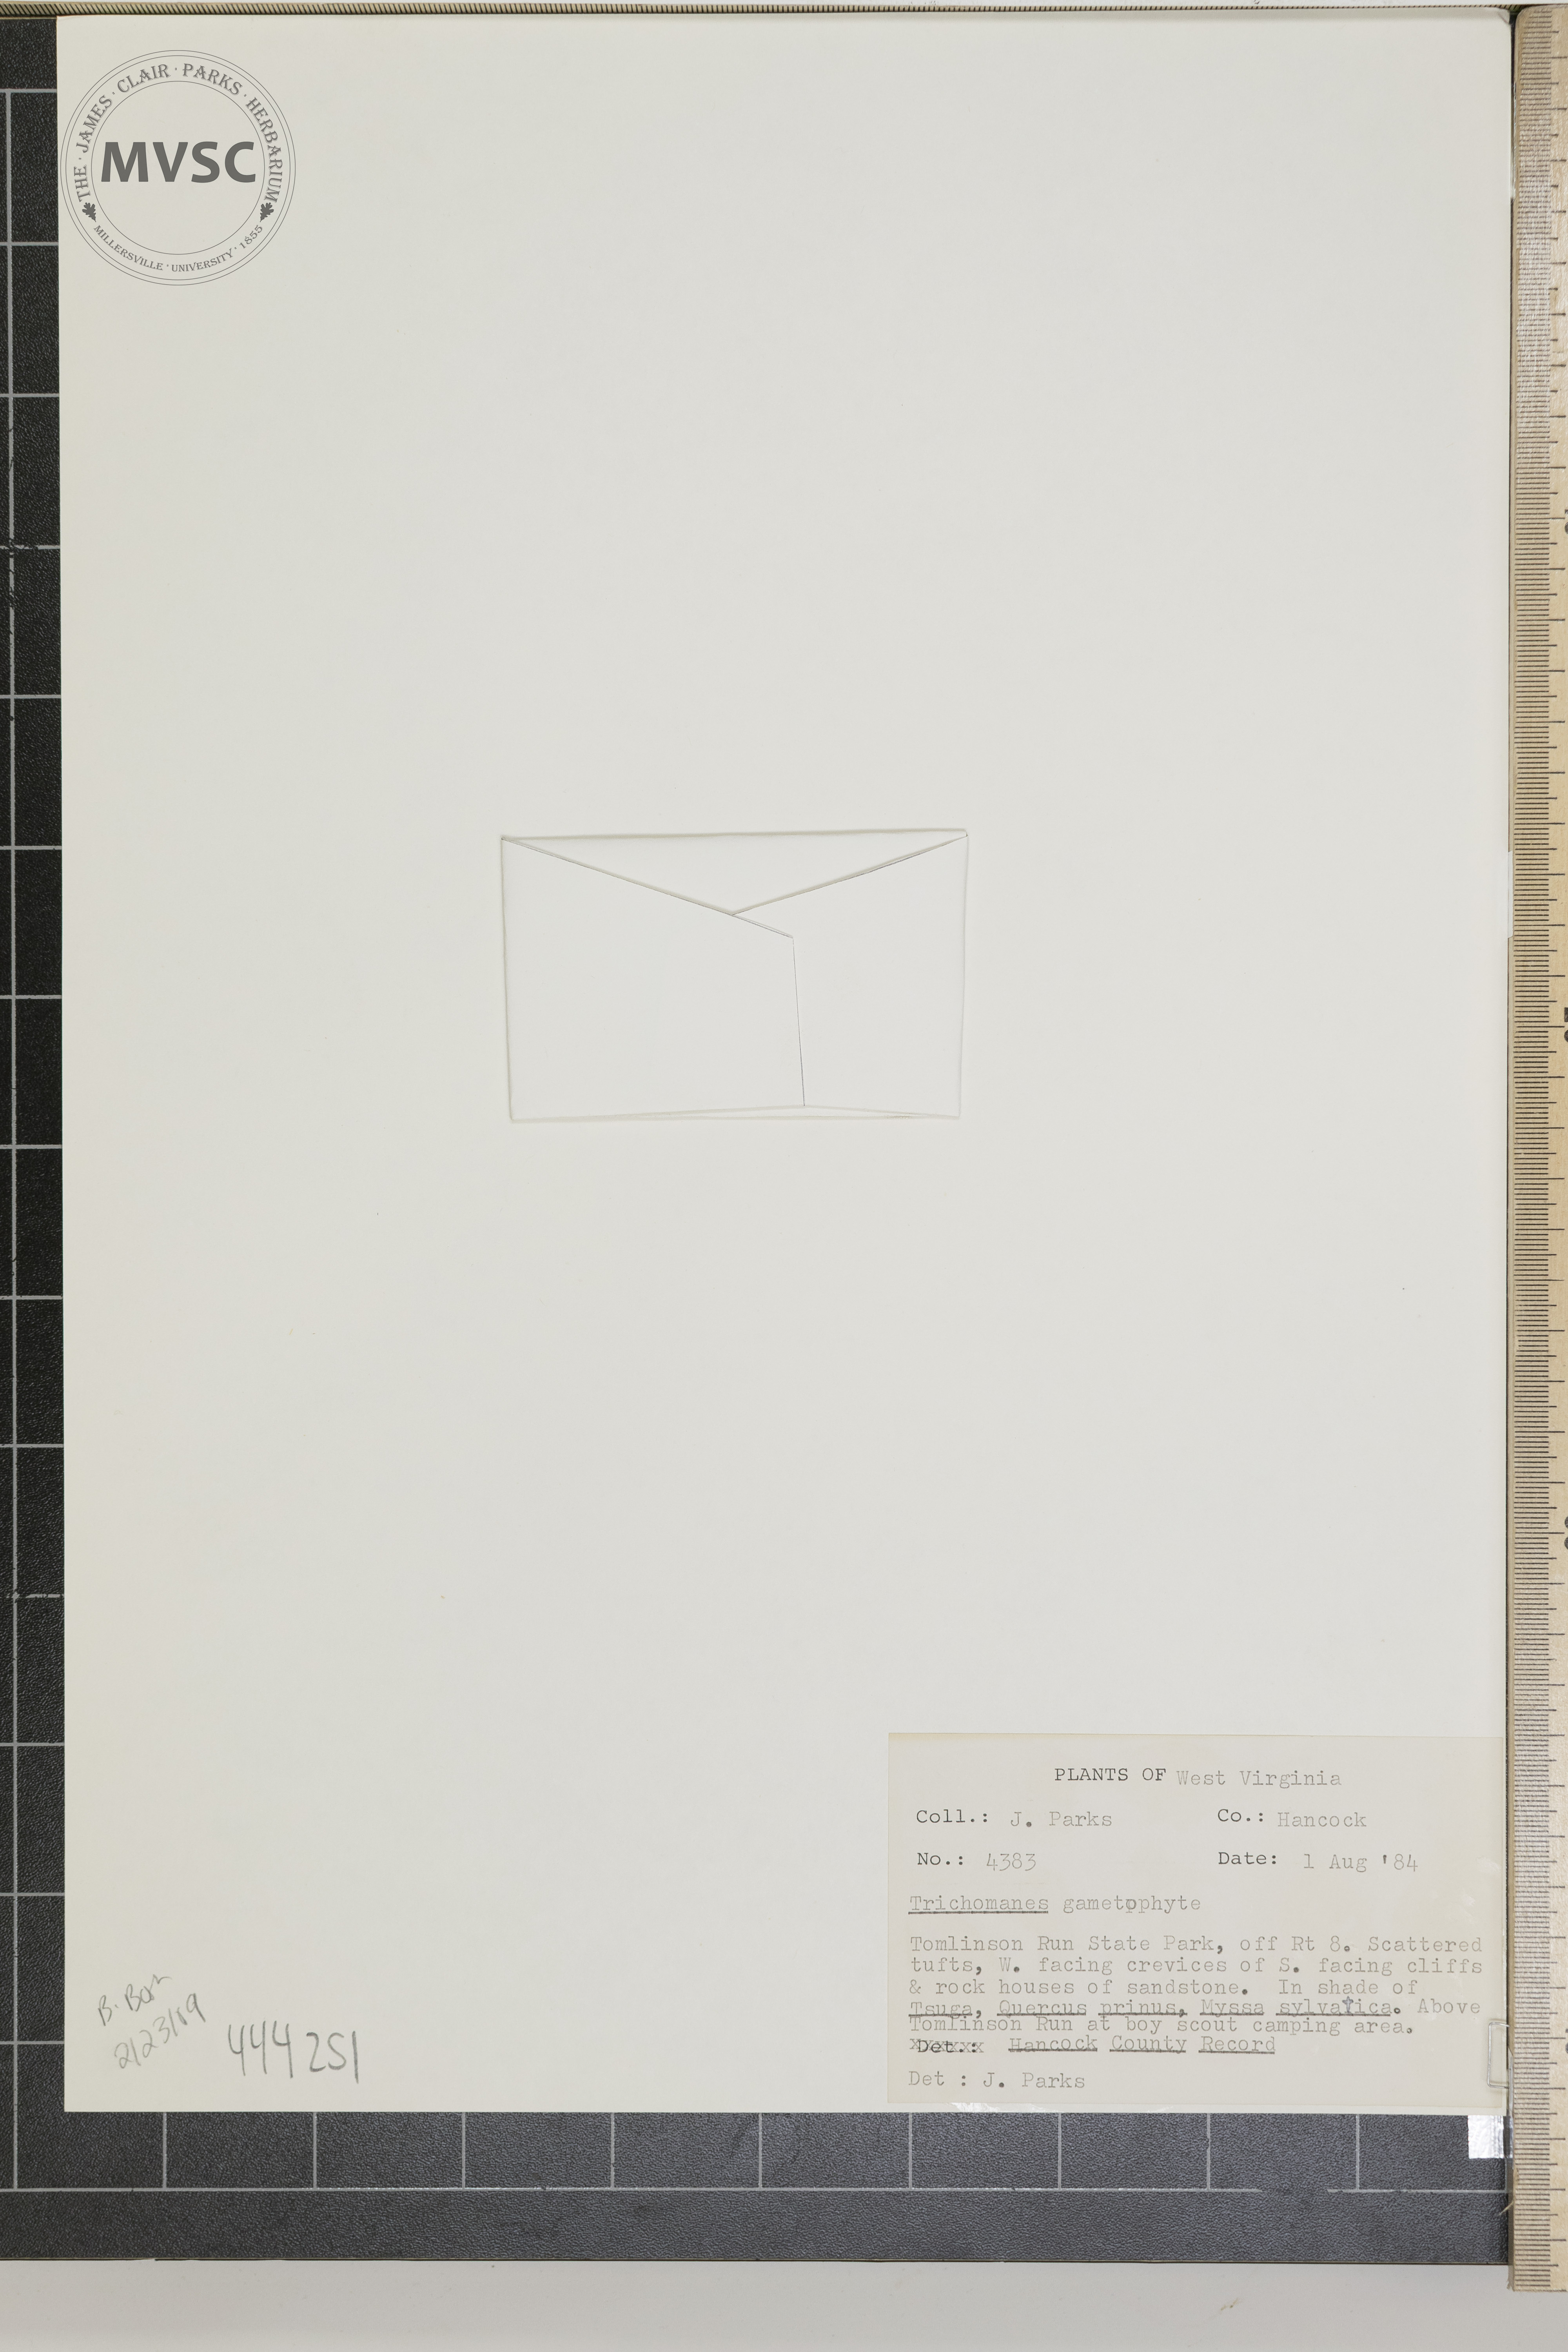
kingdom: Plantae
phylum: Tracheophyta
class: Polypodiopsida
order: Hymenophyllales
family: Hymenophyllaceae
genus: Trichomanes
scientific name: Trichomanes
